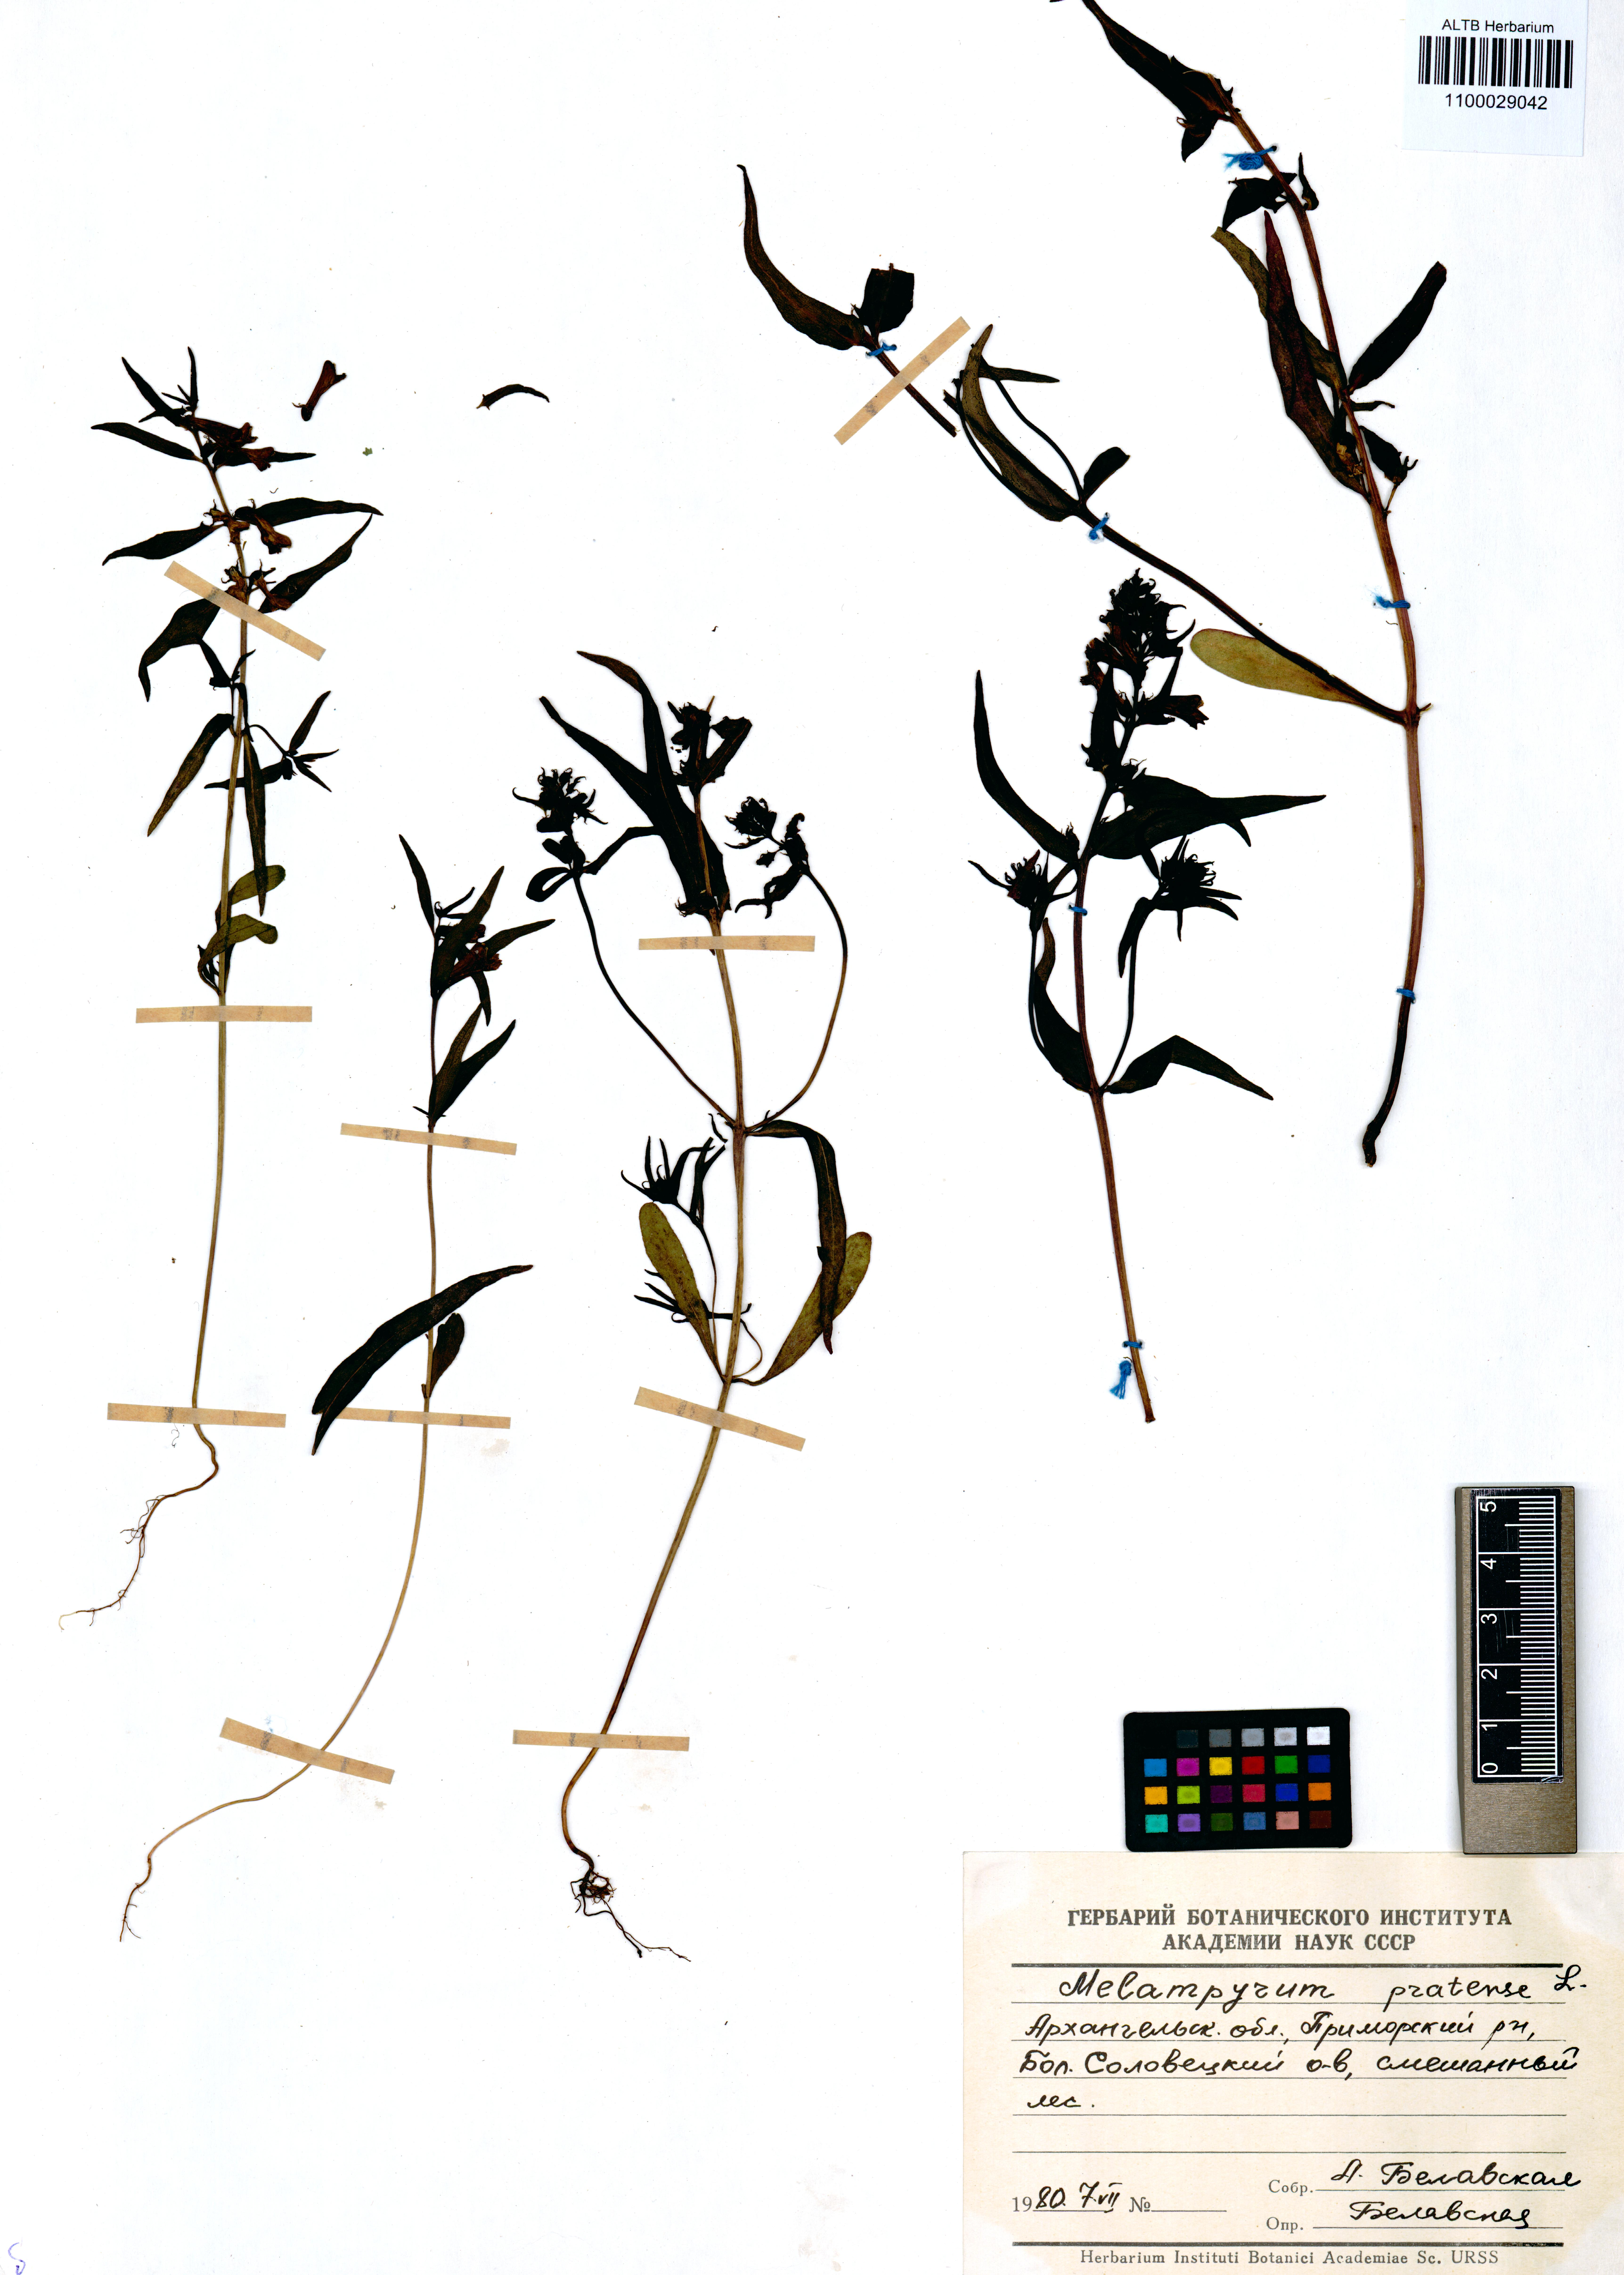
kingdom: Plantae
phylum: Tracheophyta
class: Magnoliopsida
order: Lamiales
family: Orobanchaceae
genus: Melampyrum
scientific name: Melampyrum pratense
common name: Common cow-wheat
